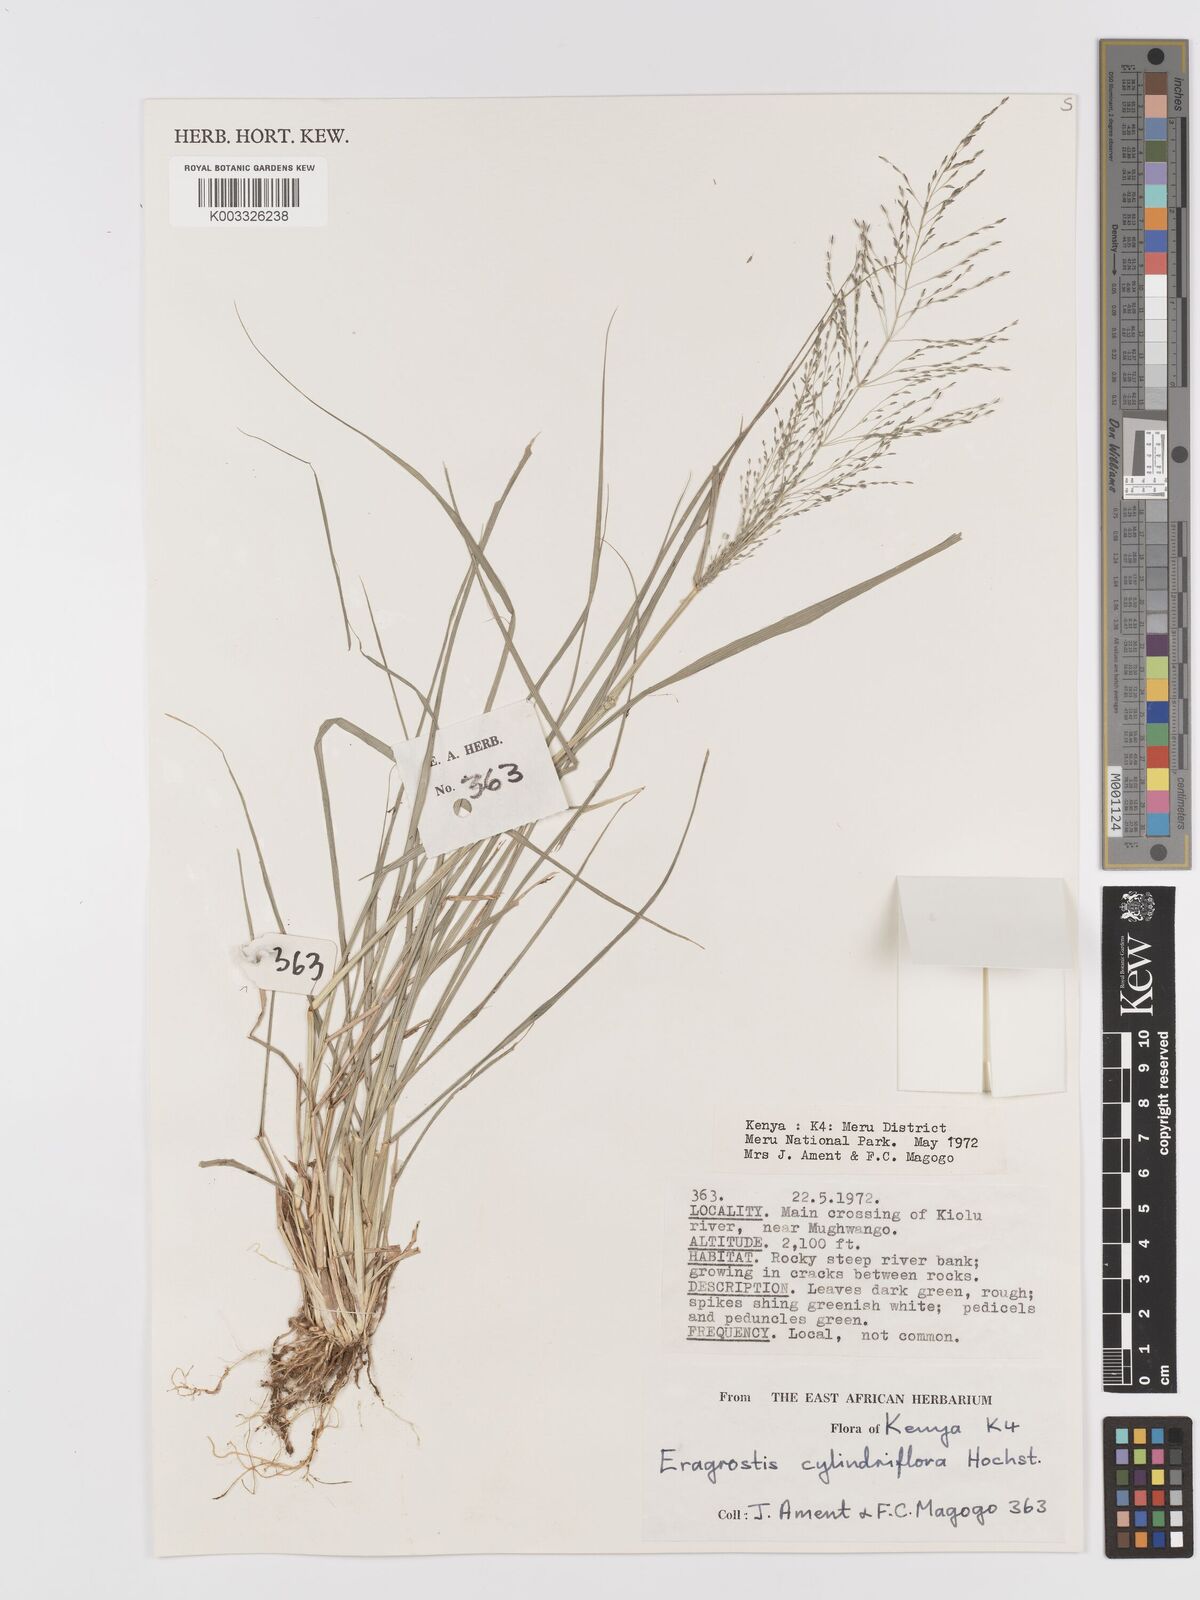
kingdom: Plantae
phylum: Tracheophyta
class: Liliopsida
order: Poales
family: Poaceae
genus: Eragrostis
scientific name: Eragrostis cylindriflora
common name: Cylinderflower lovegrass
